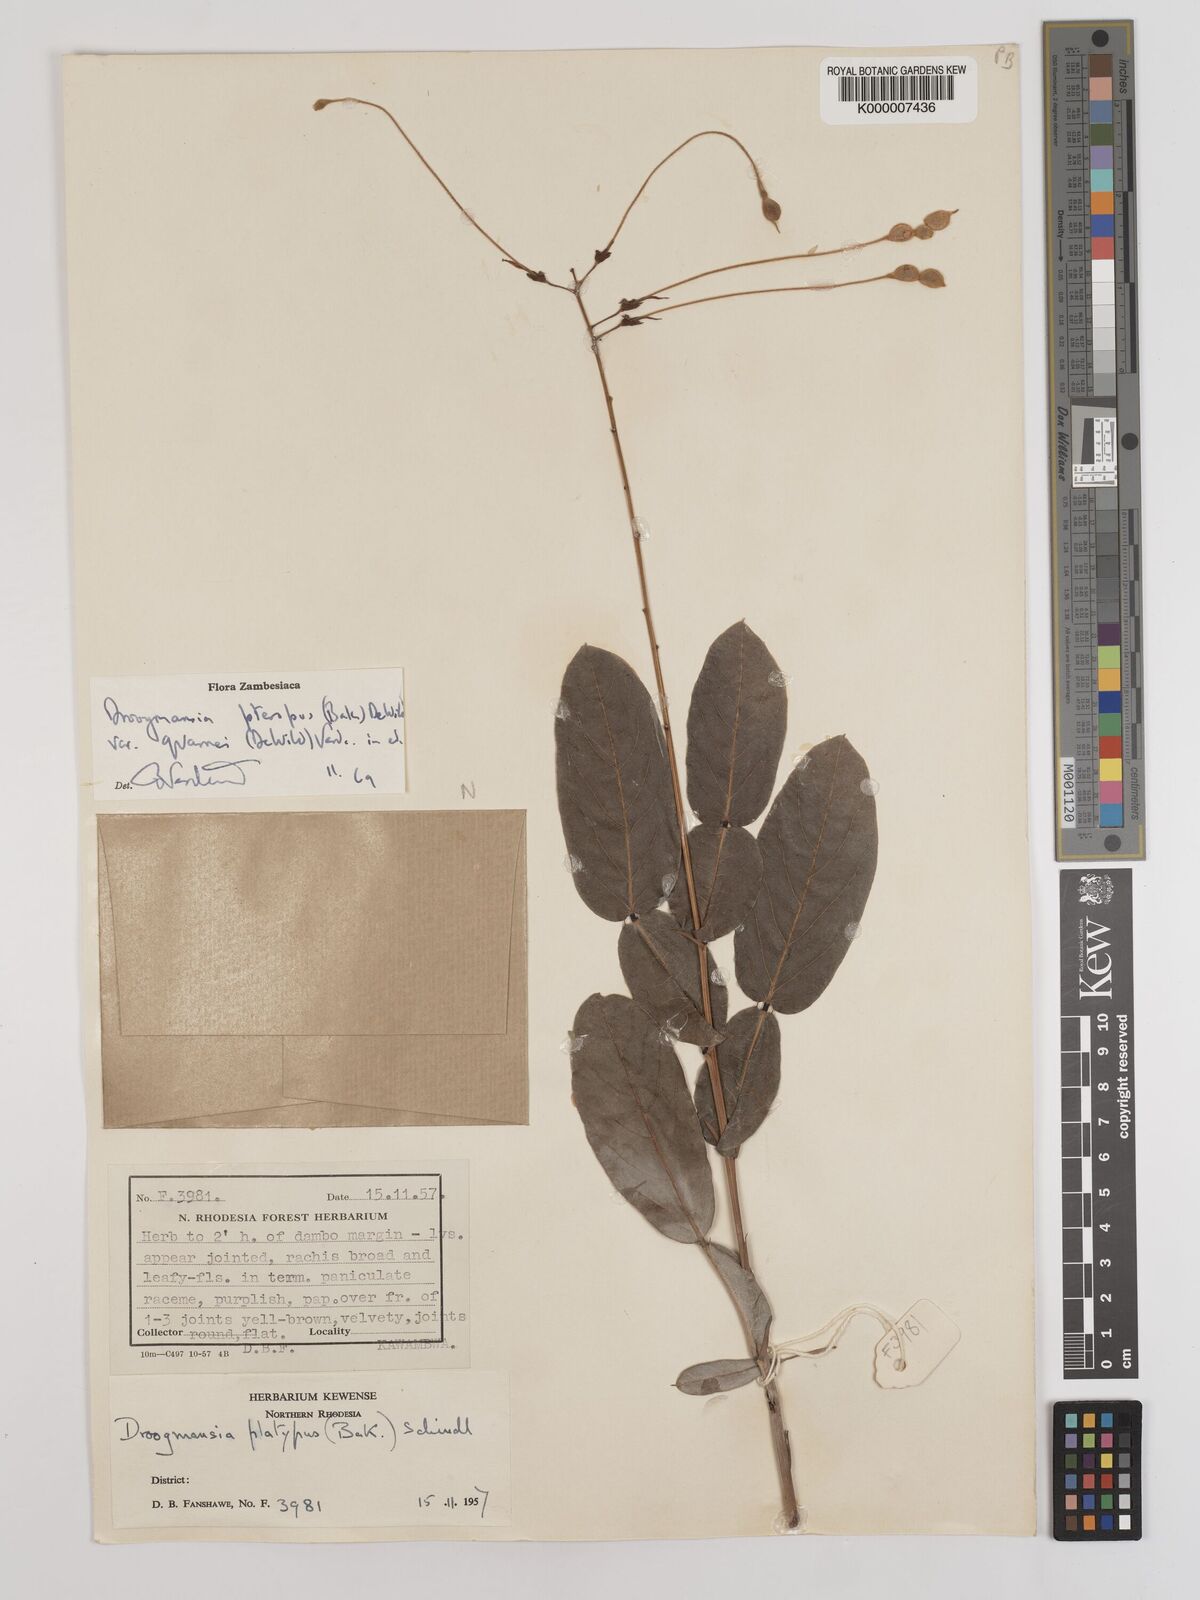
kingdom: Plantae
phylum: Tracheophyta
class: Magnoliopsida
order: Fabales
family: Fabaceae
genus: Droogmansia
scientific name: Droogmansia pteropus
